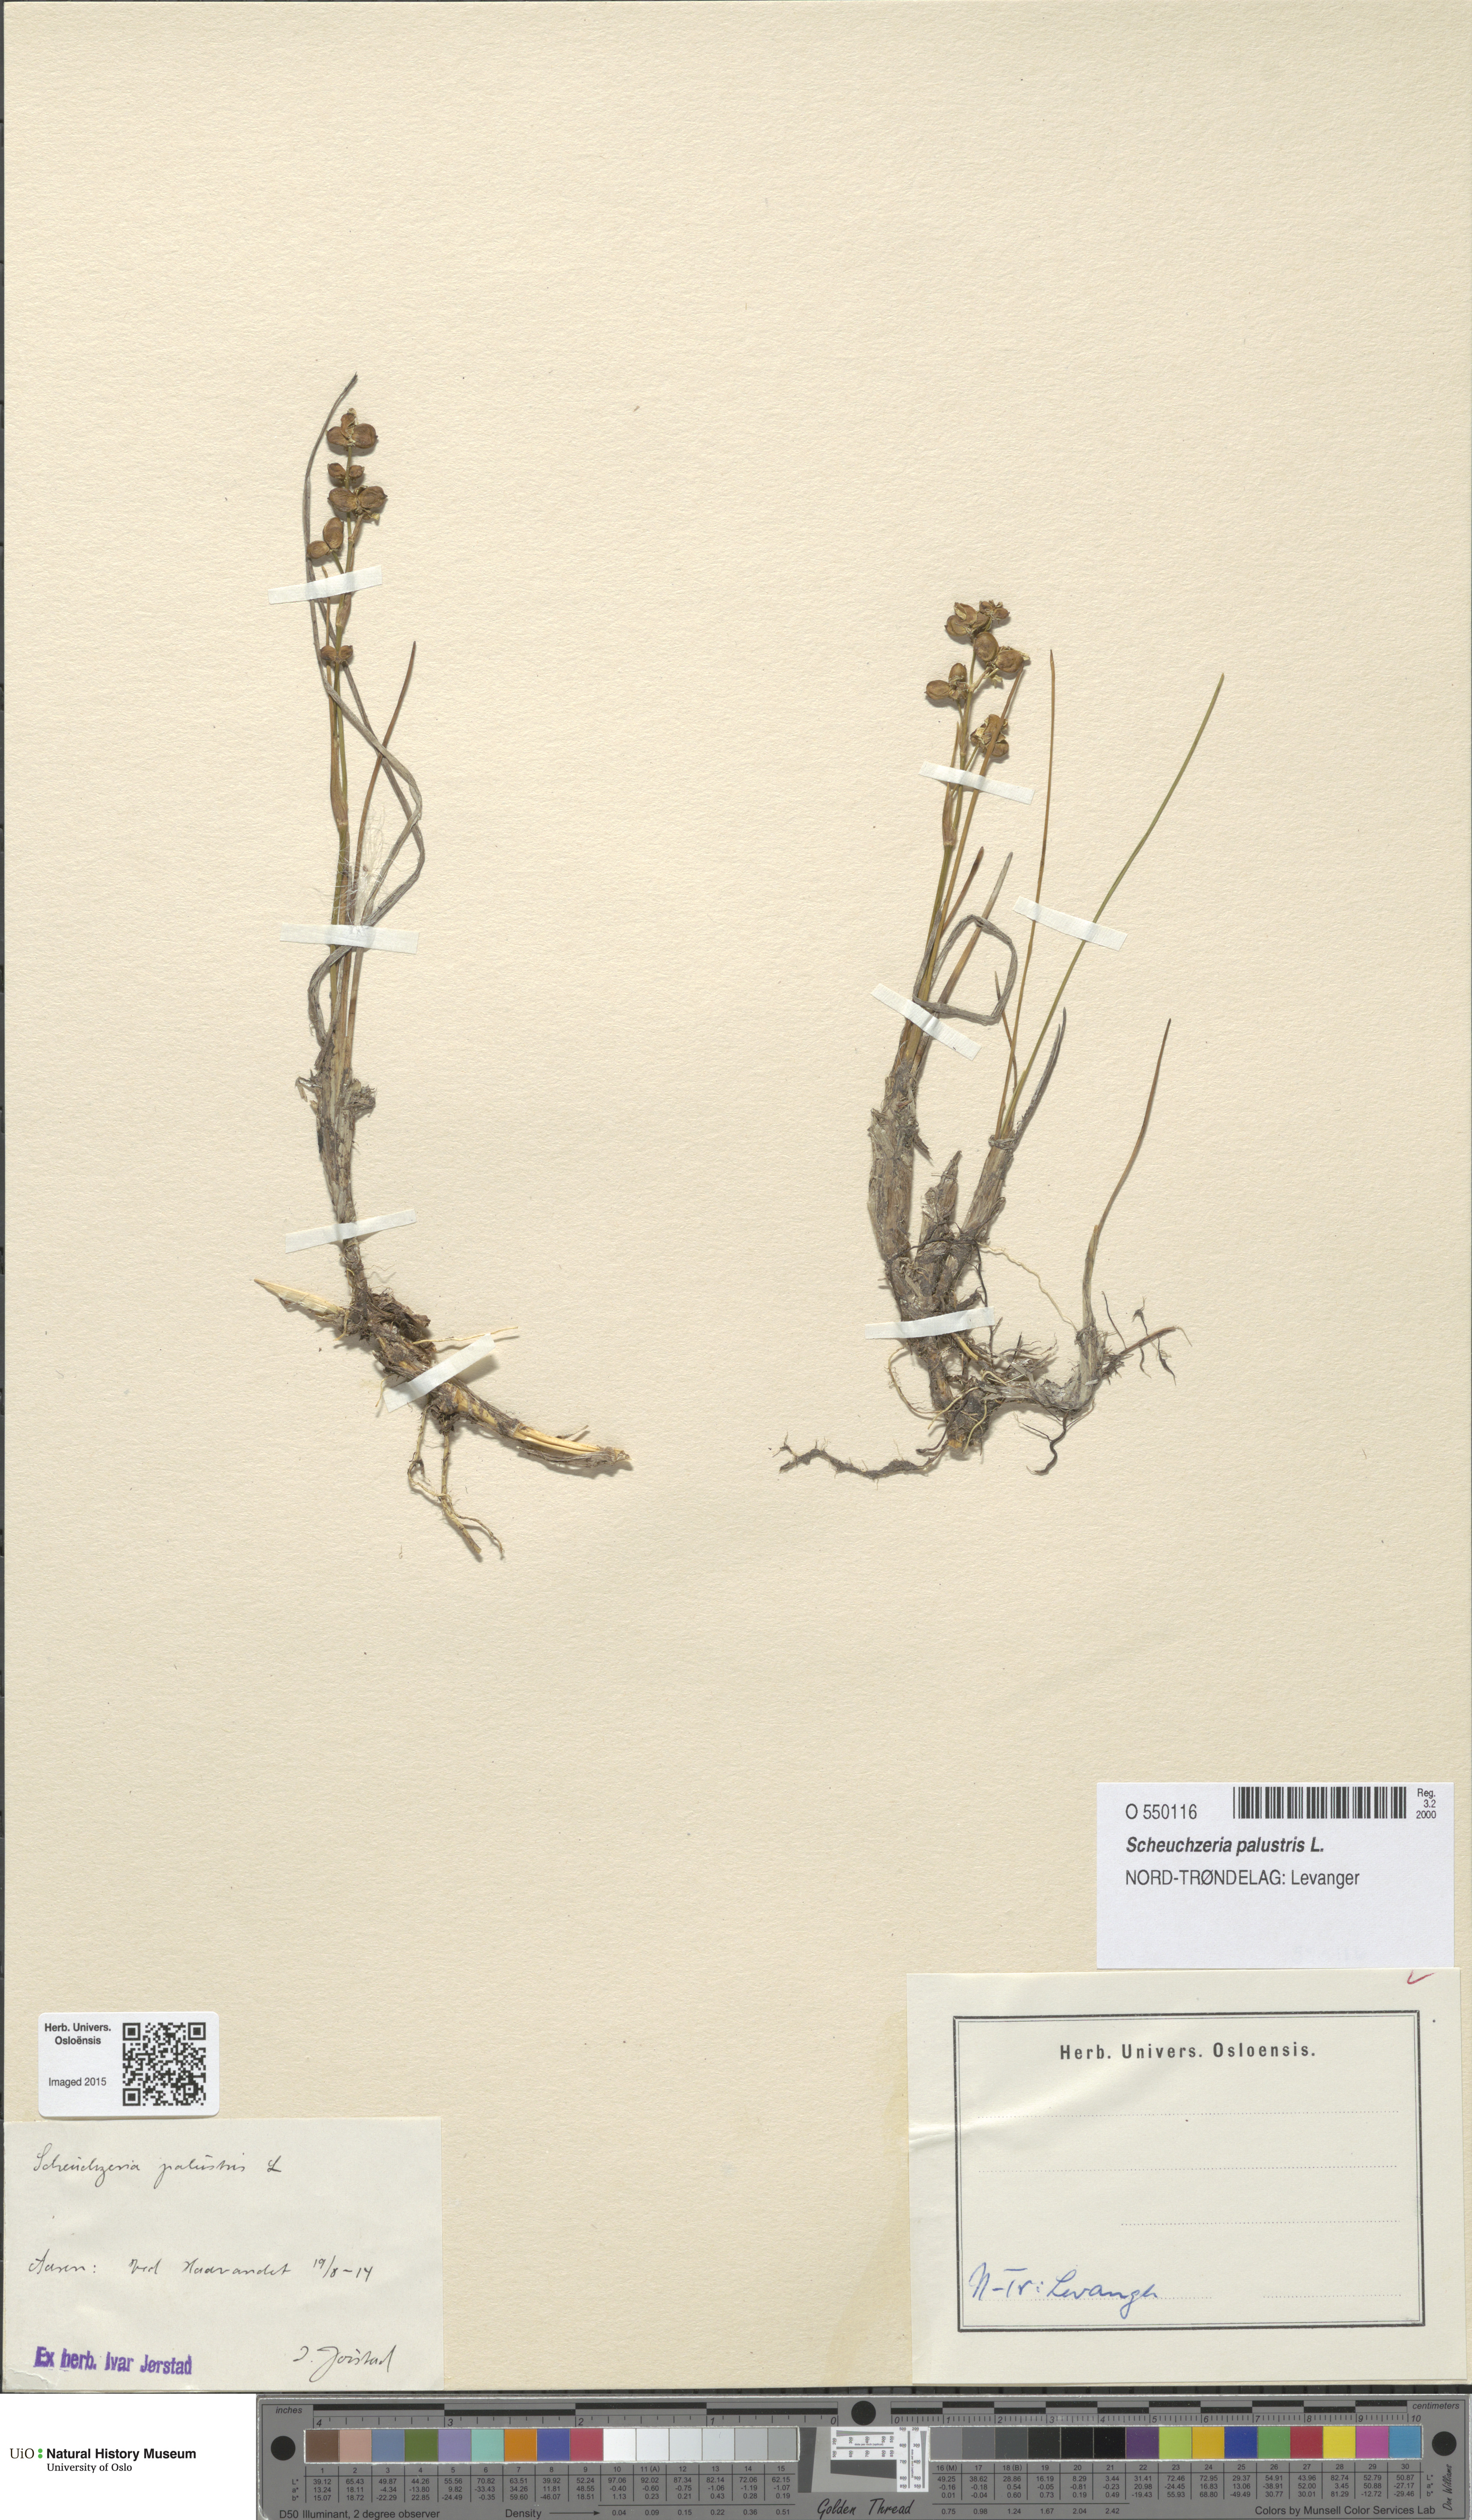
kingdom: Plantae
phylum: Tracheophyta
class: Liliopsida
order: Alismatales
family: Scheuchzeriaceae
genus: Scheuchzeria
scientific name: Scheuchzeria palustris
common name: Rannoch-rush
